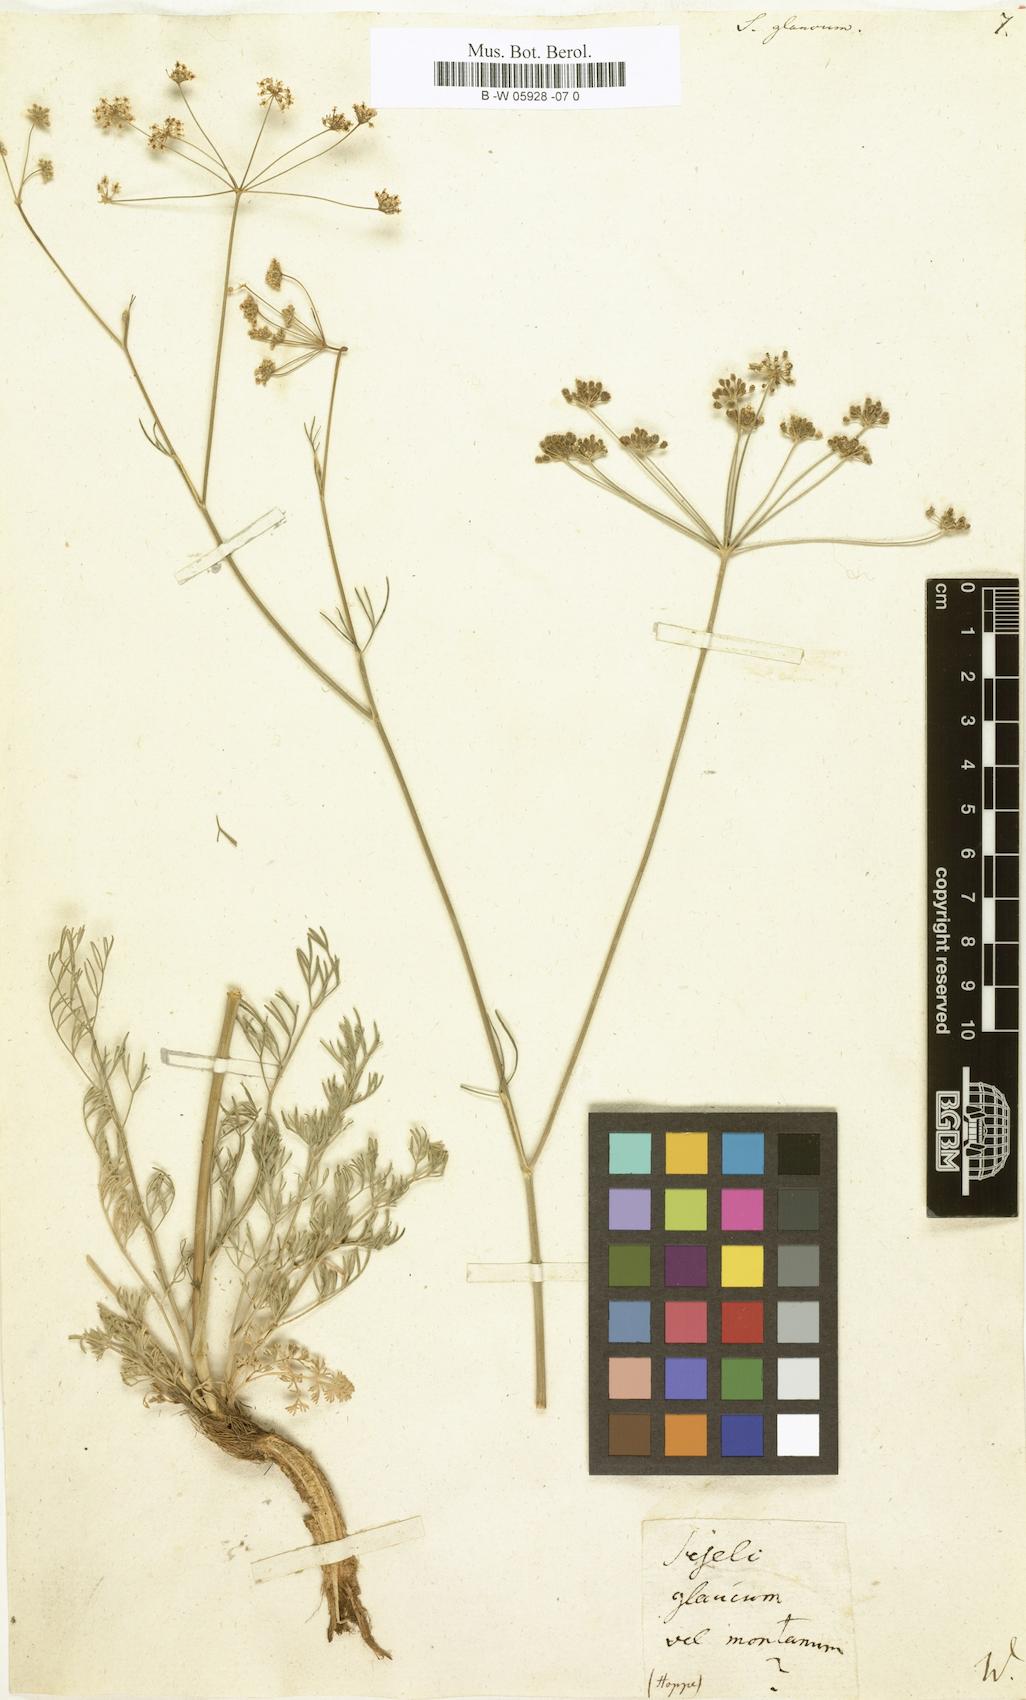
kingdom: Plantae
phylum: Tracheophyta
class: Magnoliopsida
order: Apiales
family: Apiaceae
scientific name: Apiaceae
